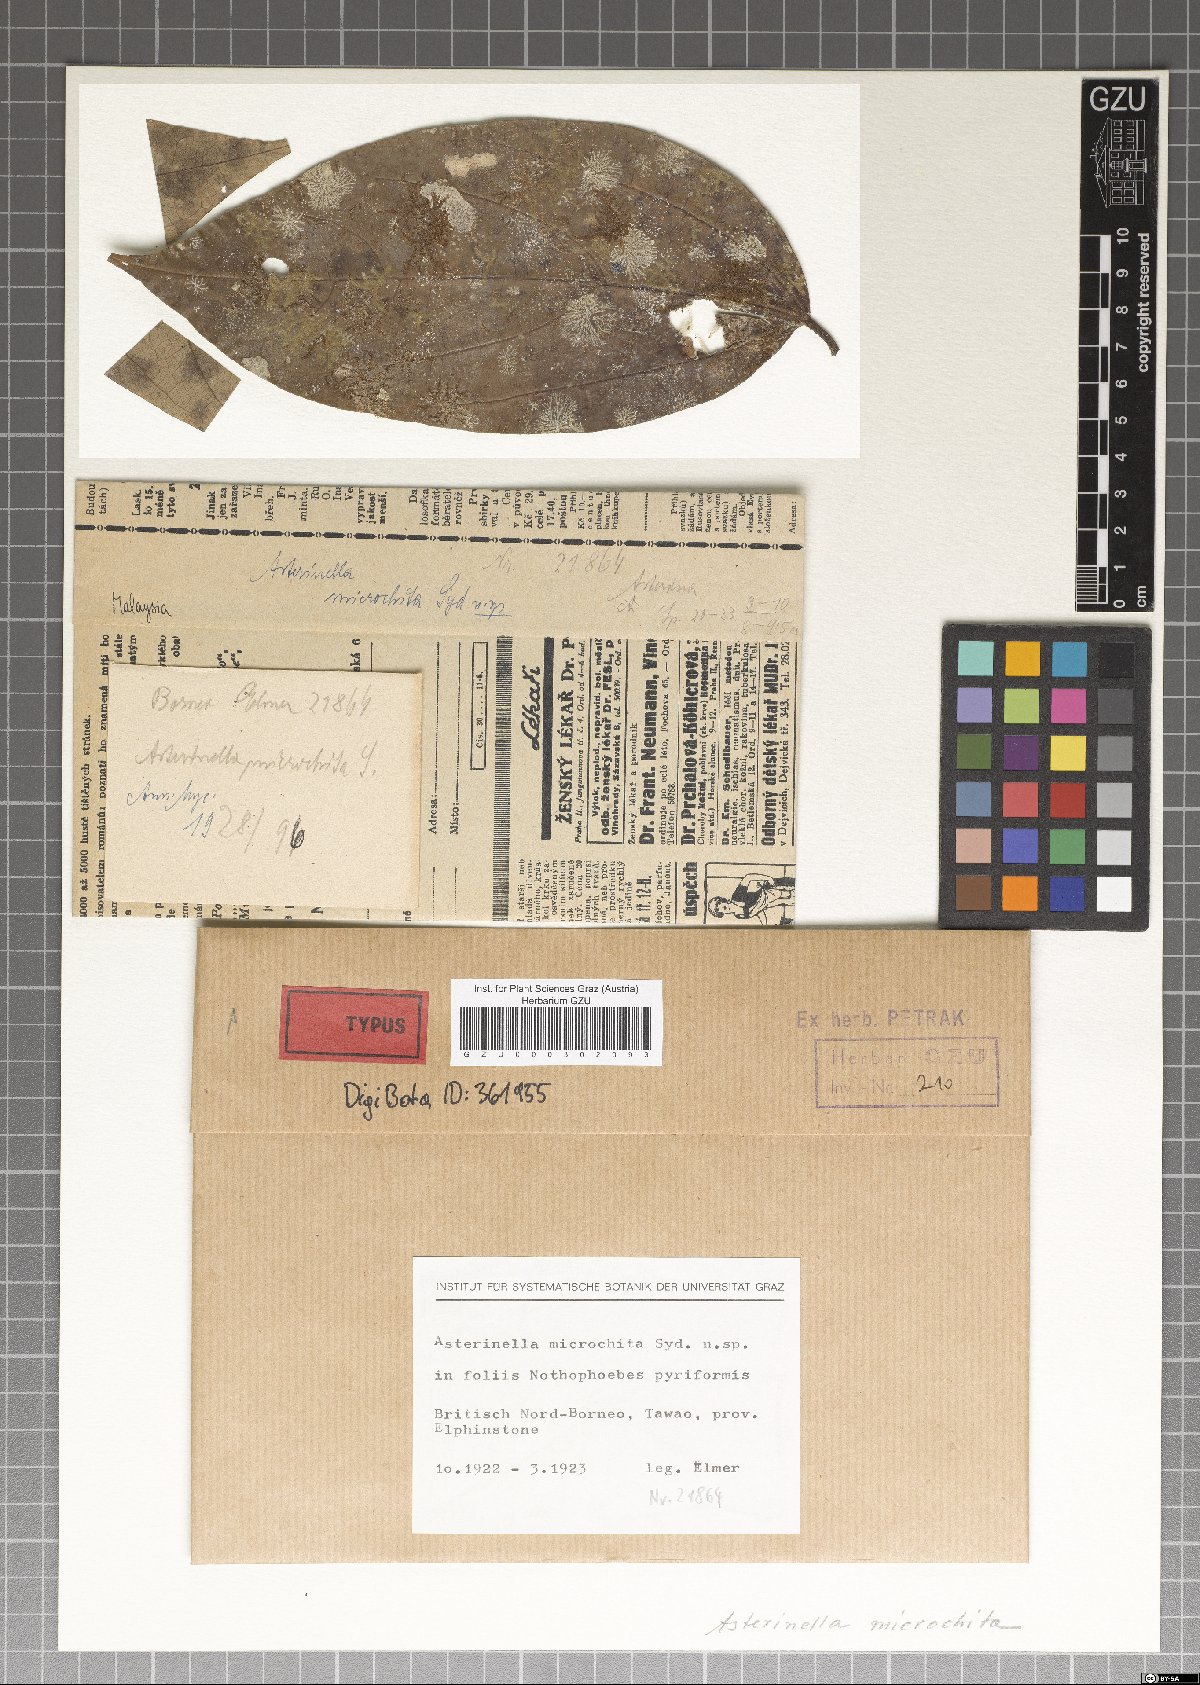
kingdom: Fungi
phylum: Ascomycota
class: Dothideomycetes
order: Asterinales
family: Asterinaceae
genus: Prillieuxina
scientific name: Prillieuxina microchita
